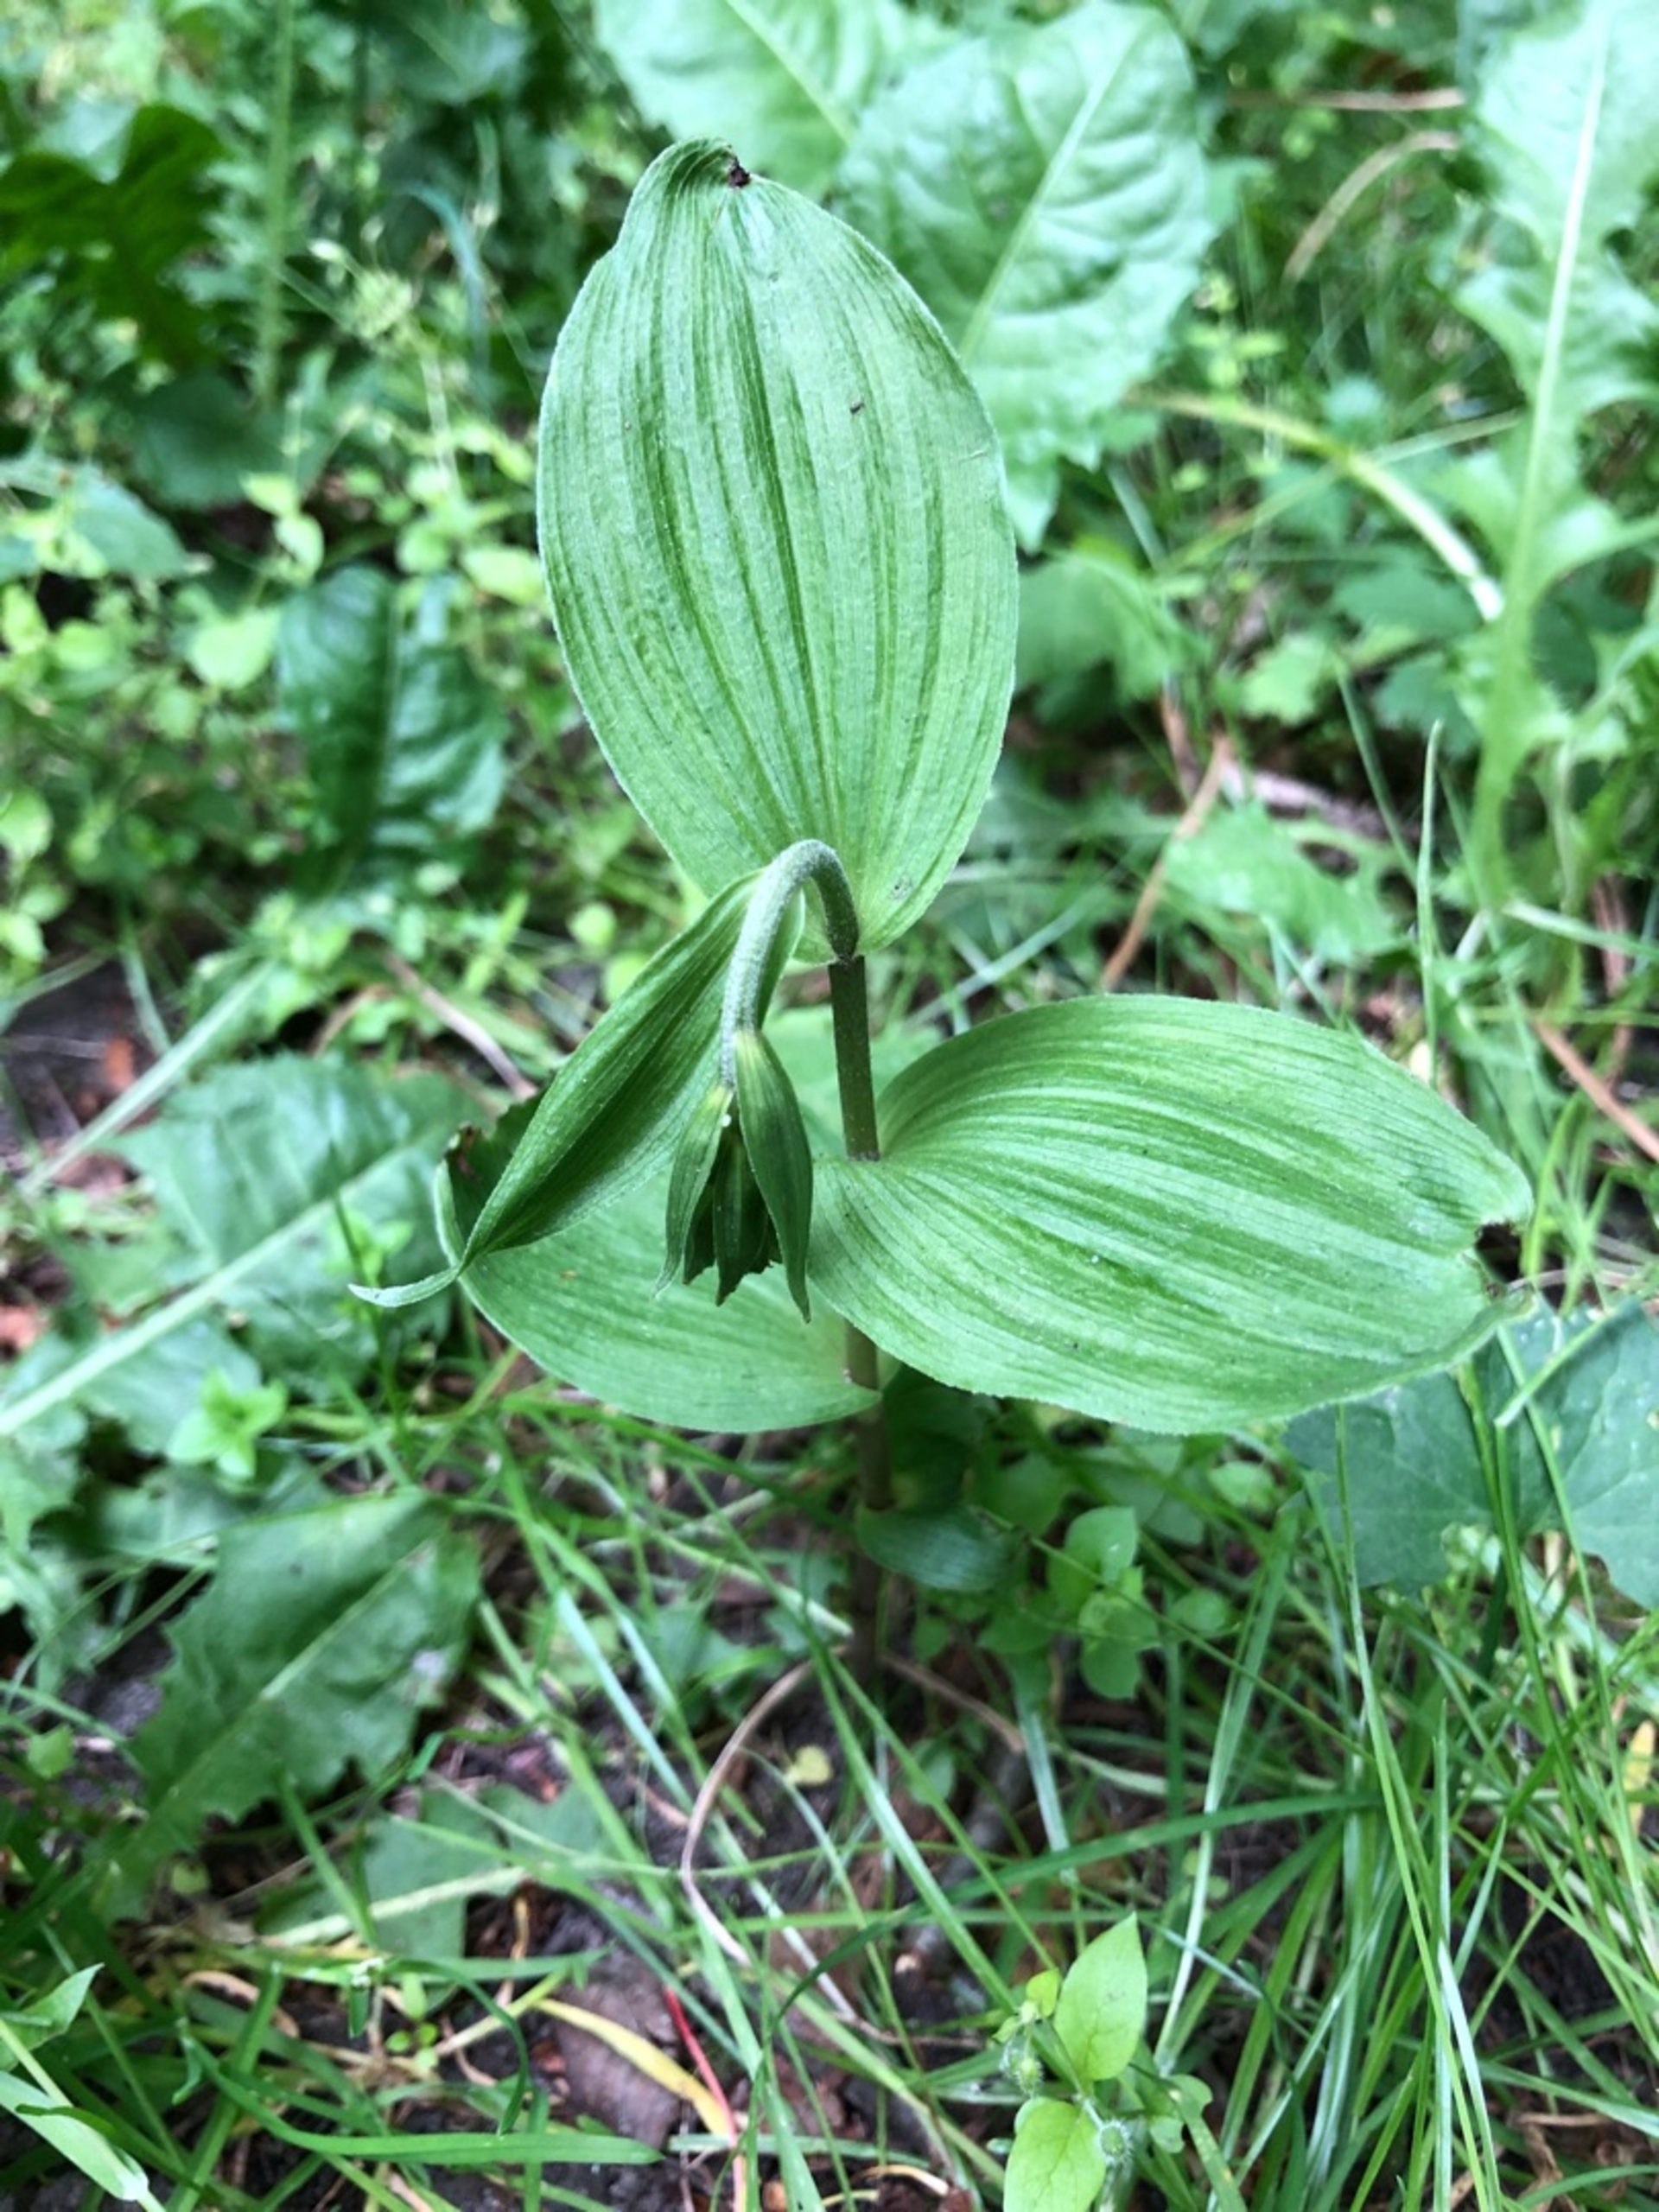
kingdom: Plantae
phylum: Tracheophyta
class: Liliopsida
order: Asparagales
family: Orchidaceae
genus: Epipactis
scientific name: Epipactis helleborine
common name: Skov-hullæbe
